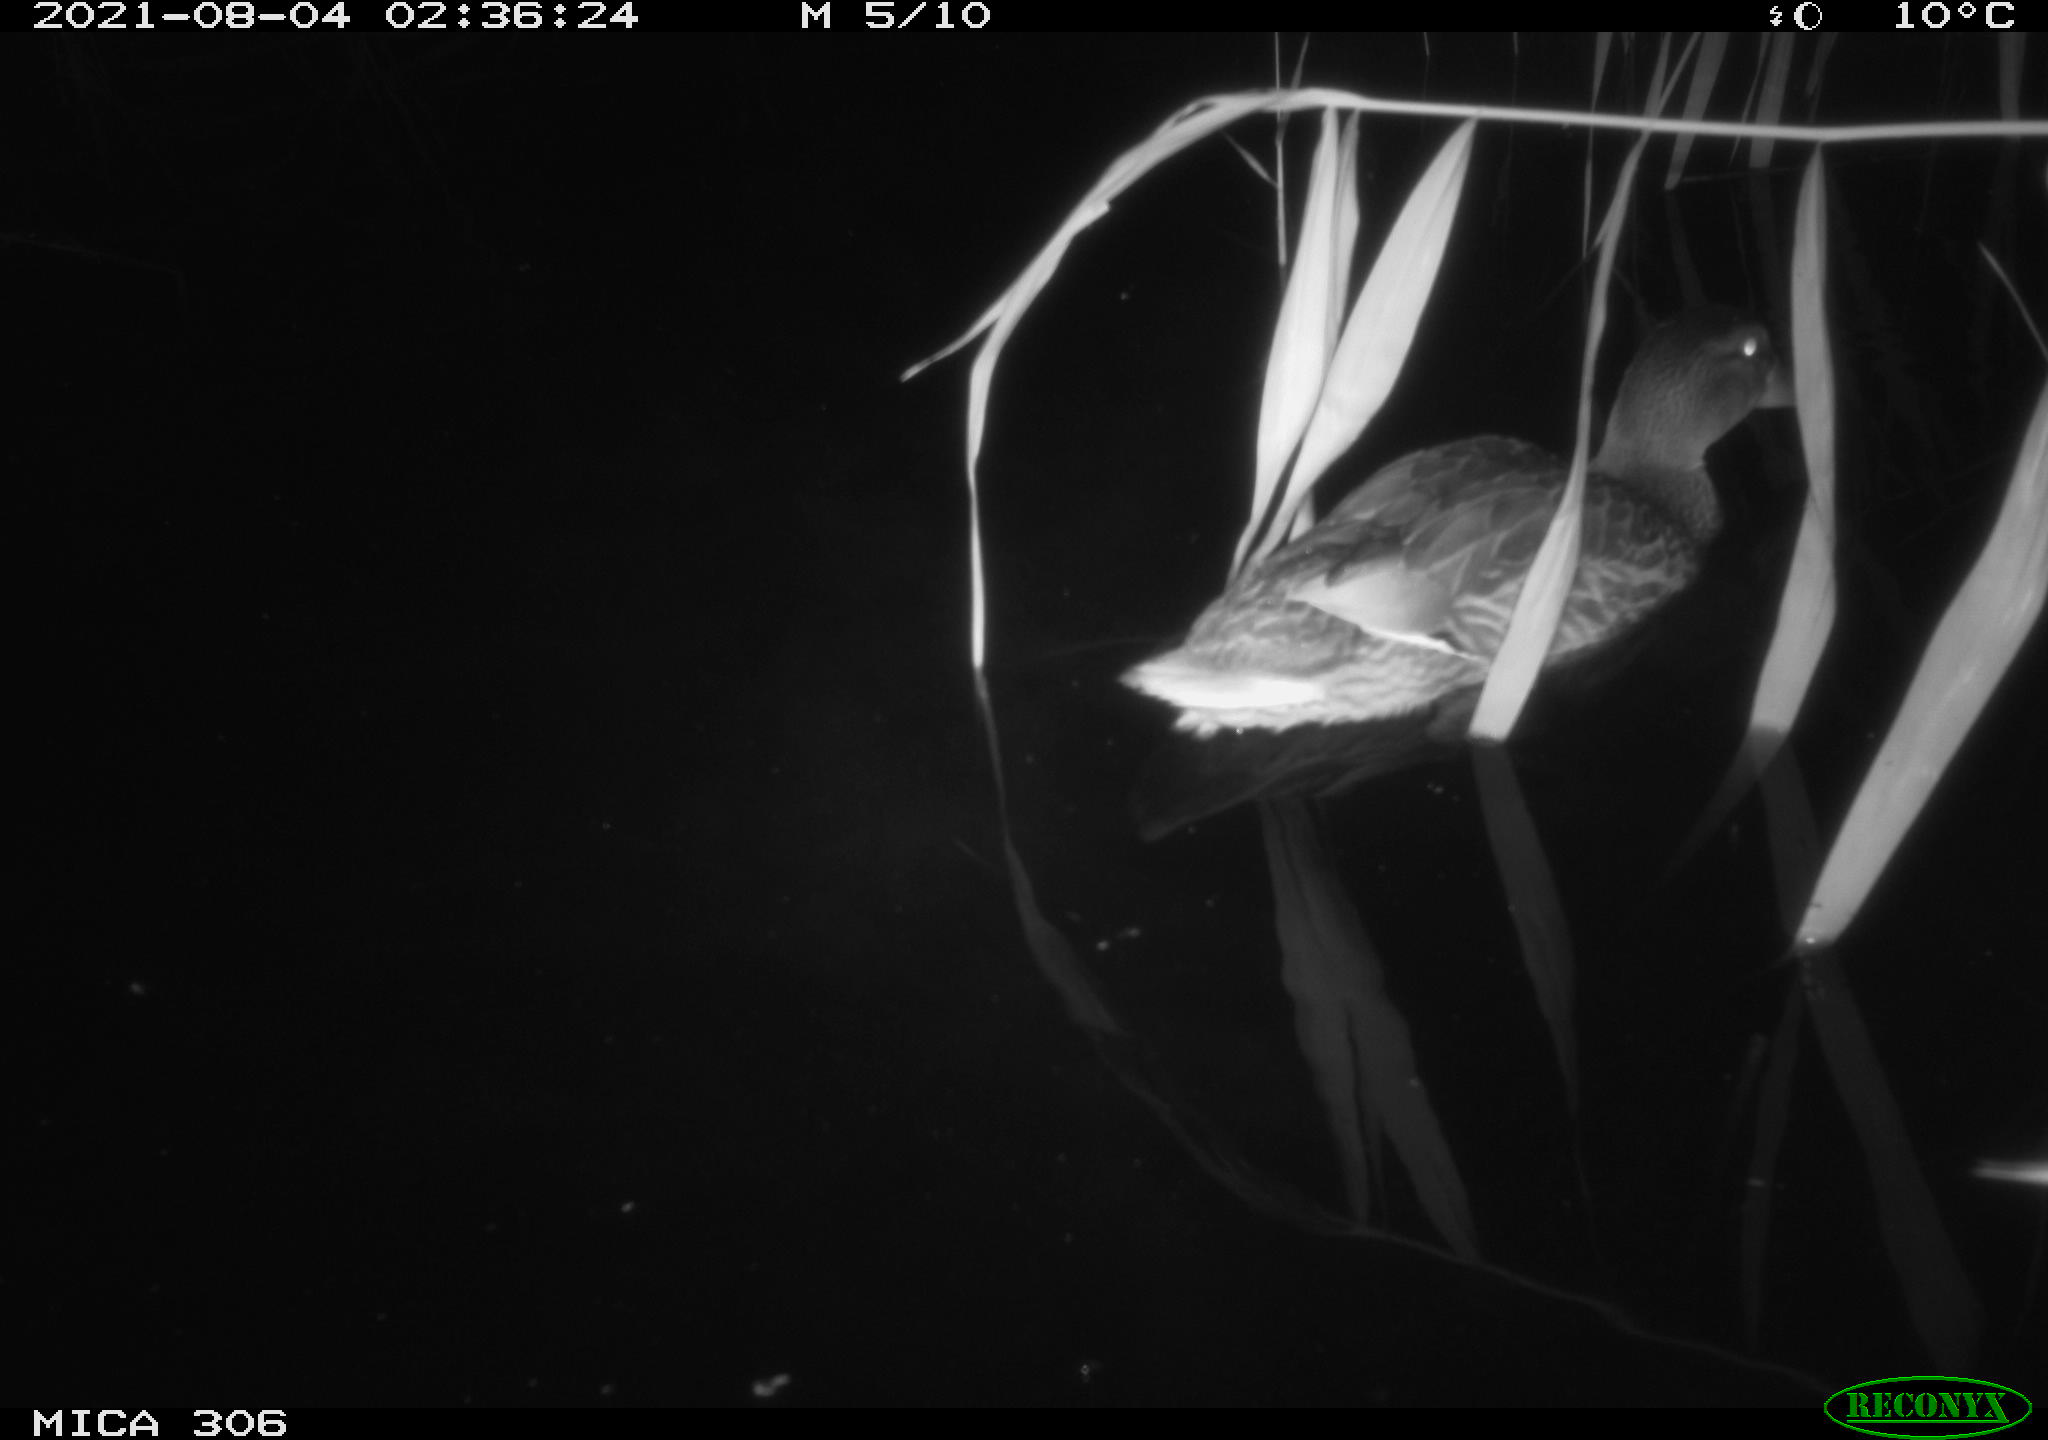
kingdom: Animalia
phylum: Chordata
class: Aves
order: Anseriformes
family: Anatidae
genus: Anas
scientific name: Anas platyrhynchos
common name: Mallard
